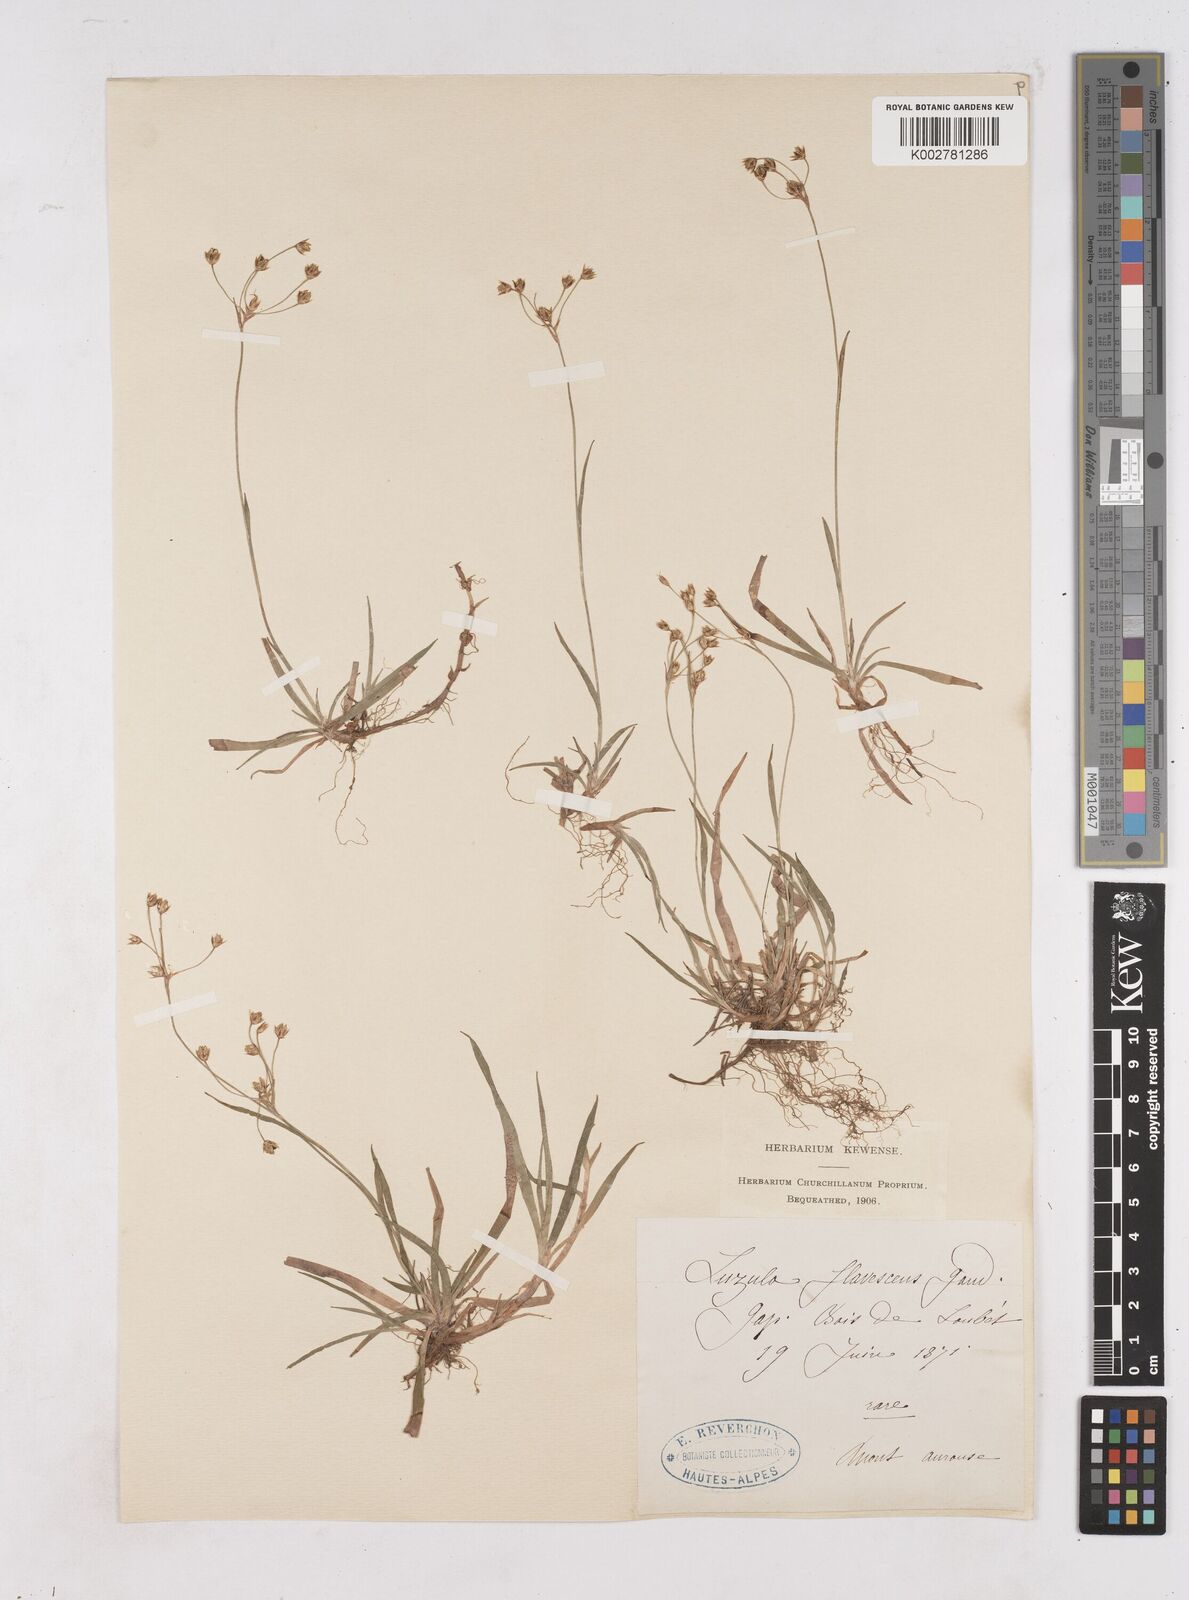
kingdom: Plantae
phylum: Tracheophyta
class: Liliopsida
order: Poales
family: Juncaceae
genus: Luzula
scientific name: Luzula luzulina
